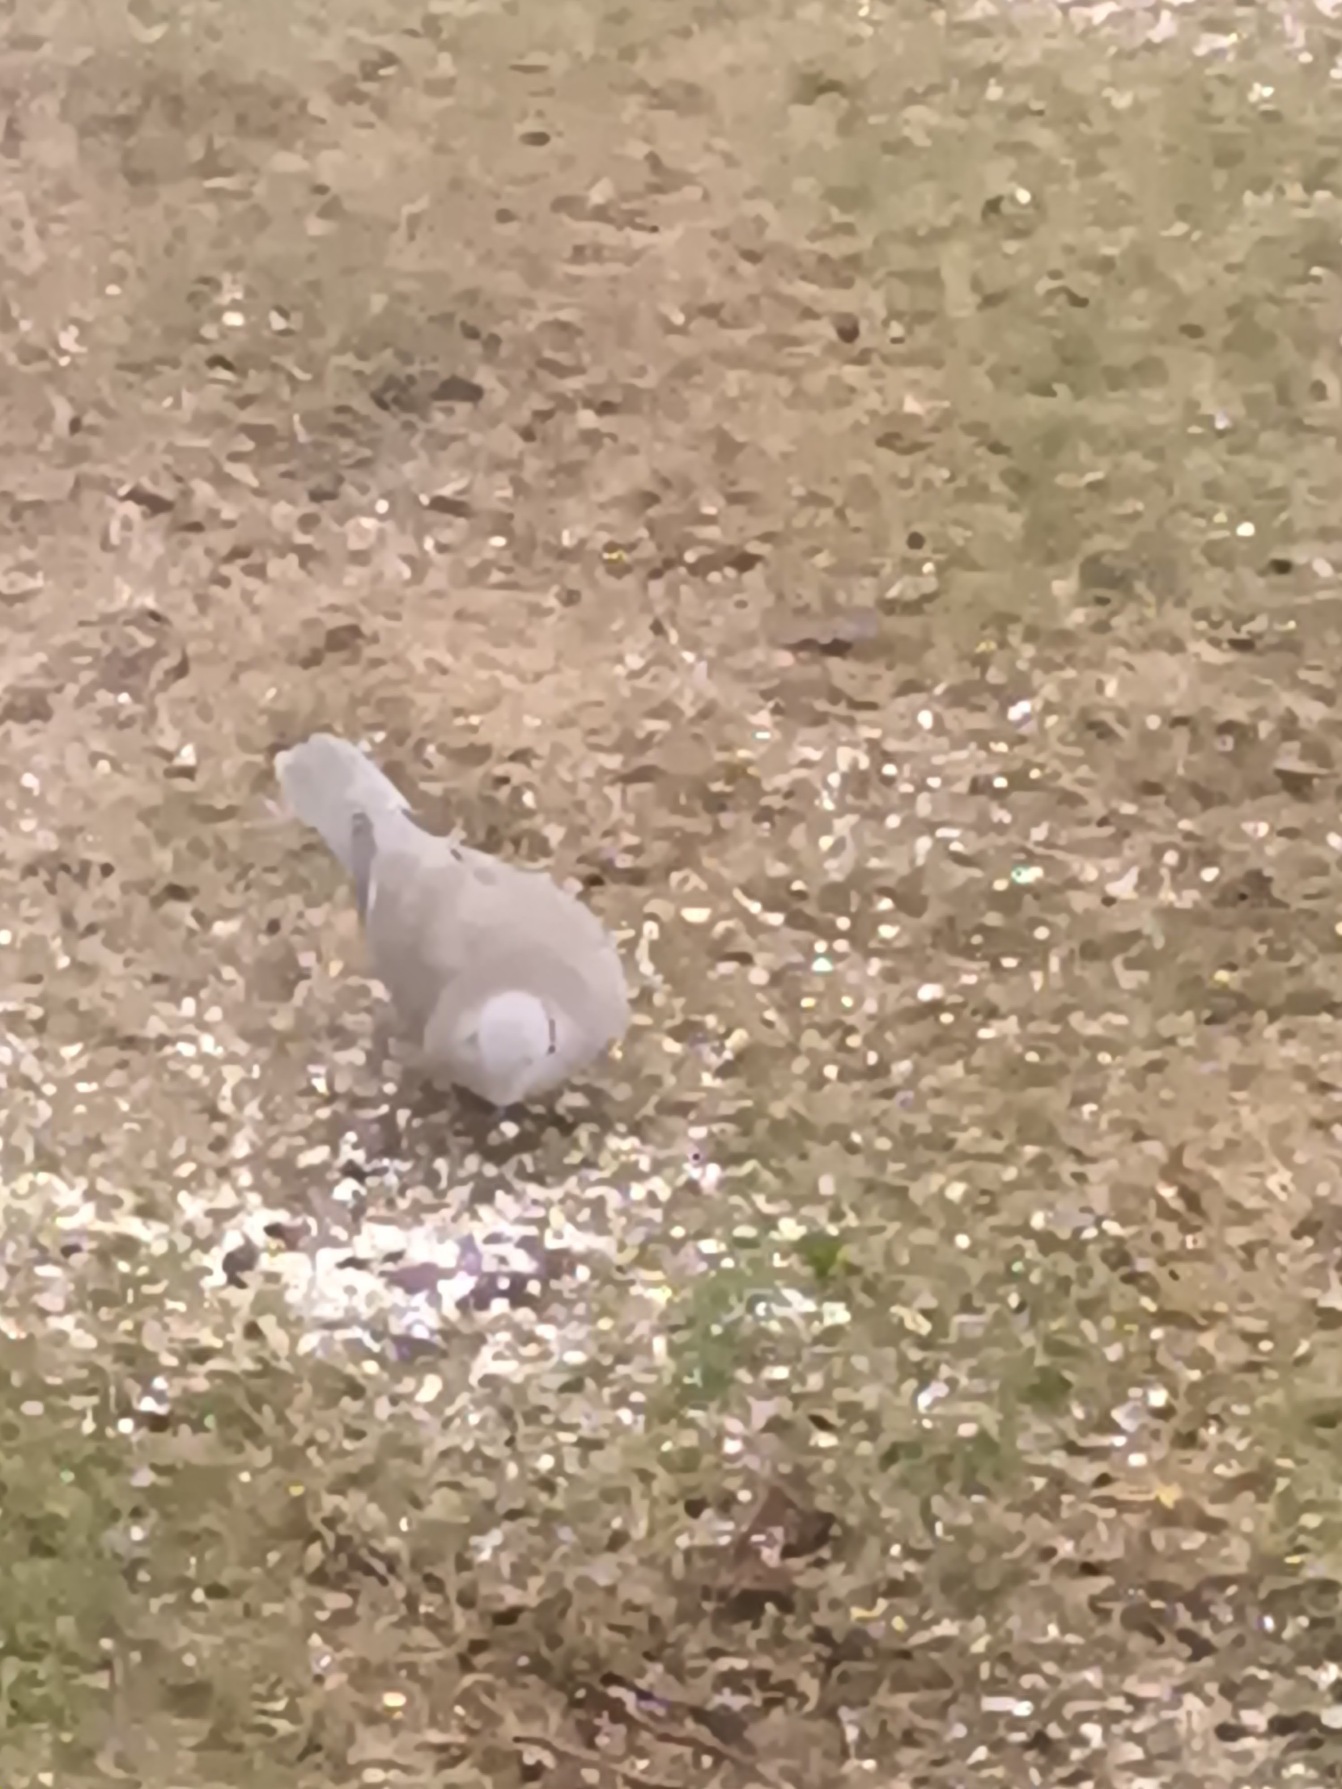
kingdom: Animalia
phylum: Chordata
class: Aves
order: Columbiformes
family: Columbidae
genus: Streptopelia
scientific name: Streptopelia decaocto
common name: Tyrkerdue
